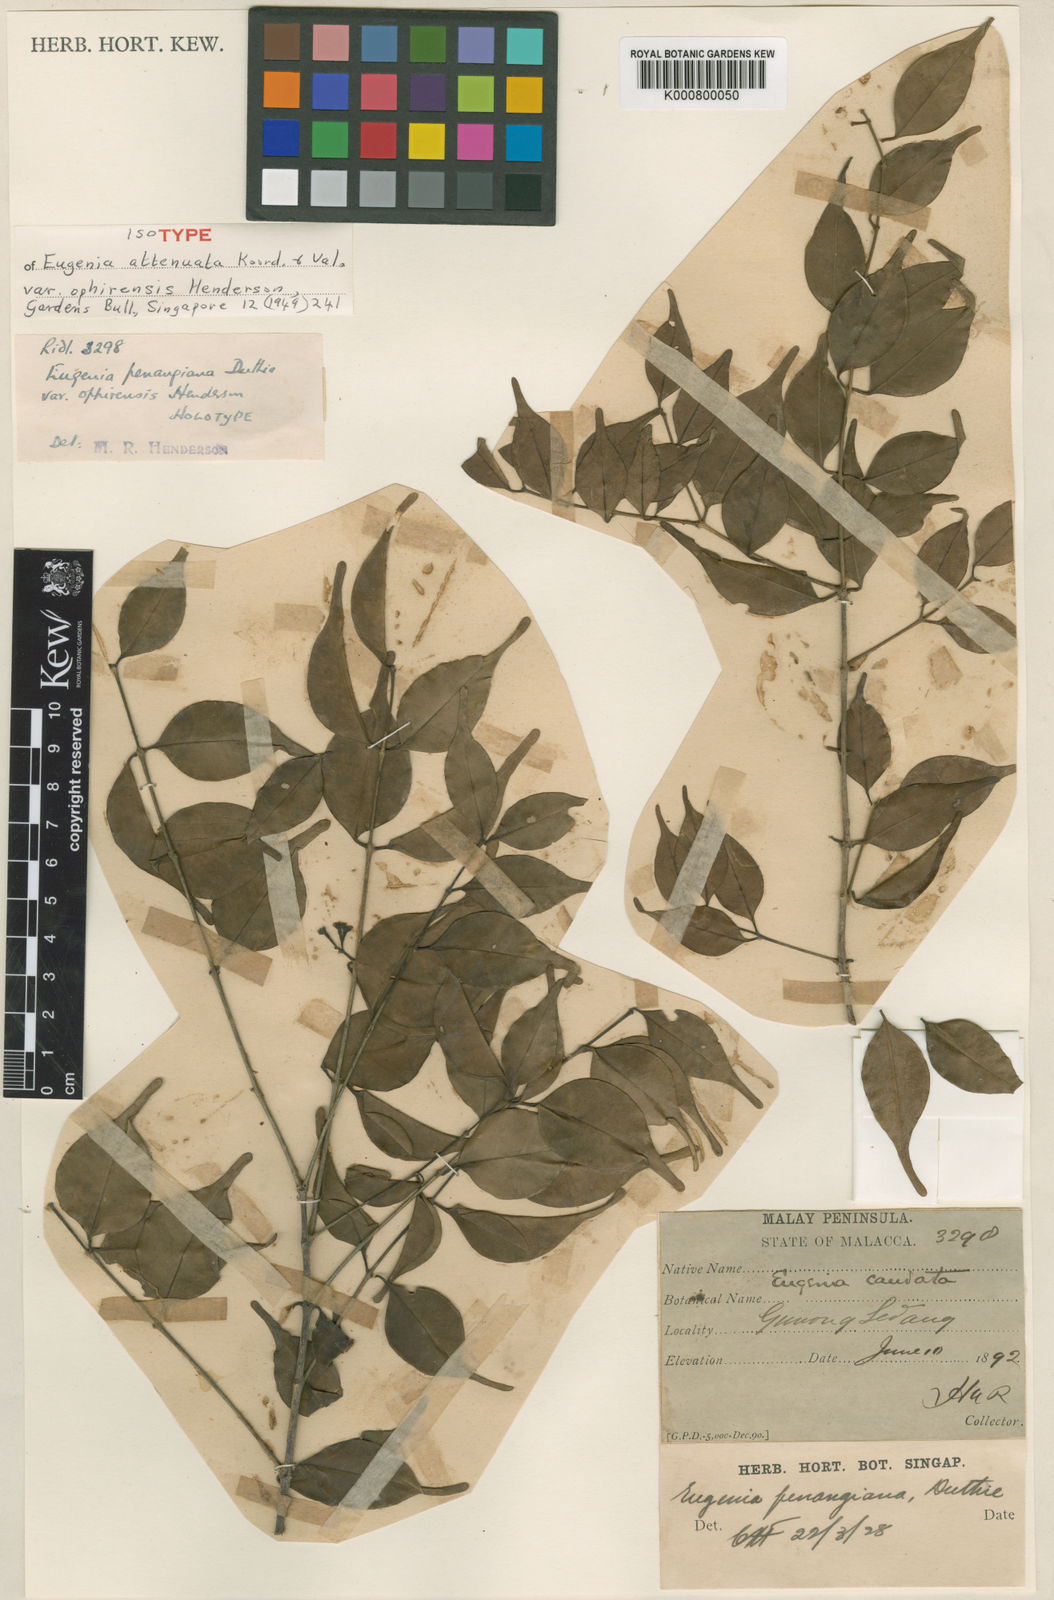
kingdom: Plantae
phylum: Tracheophyta
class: Magnoliopsida
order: Myrtales
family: Myrtaceae
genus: Syzygium
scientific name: Syzygium attenuatum
